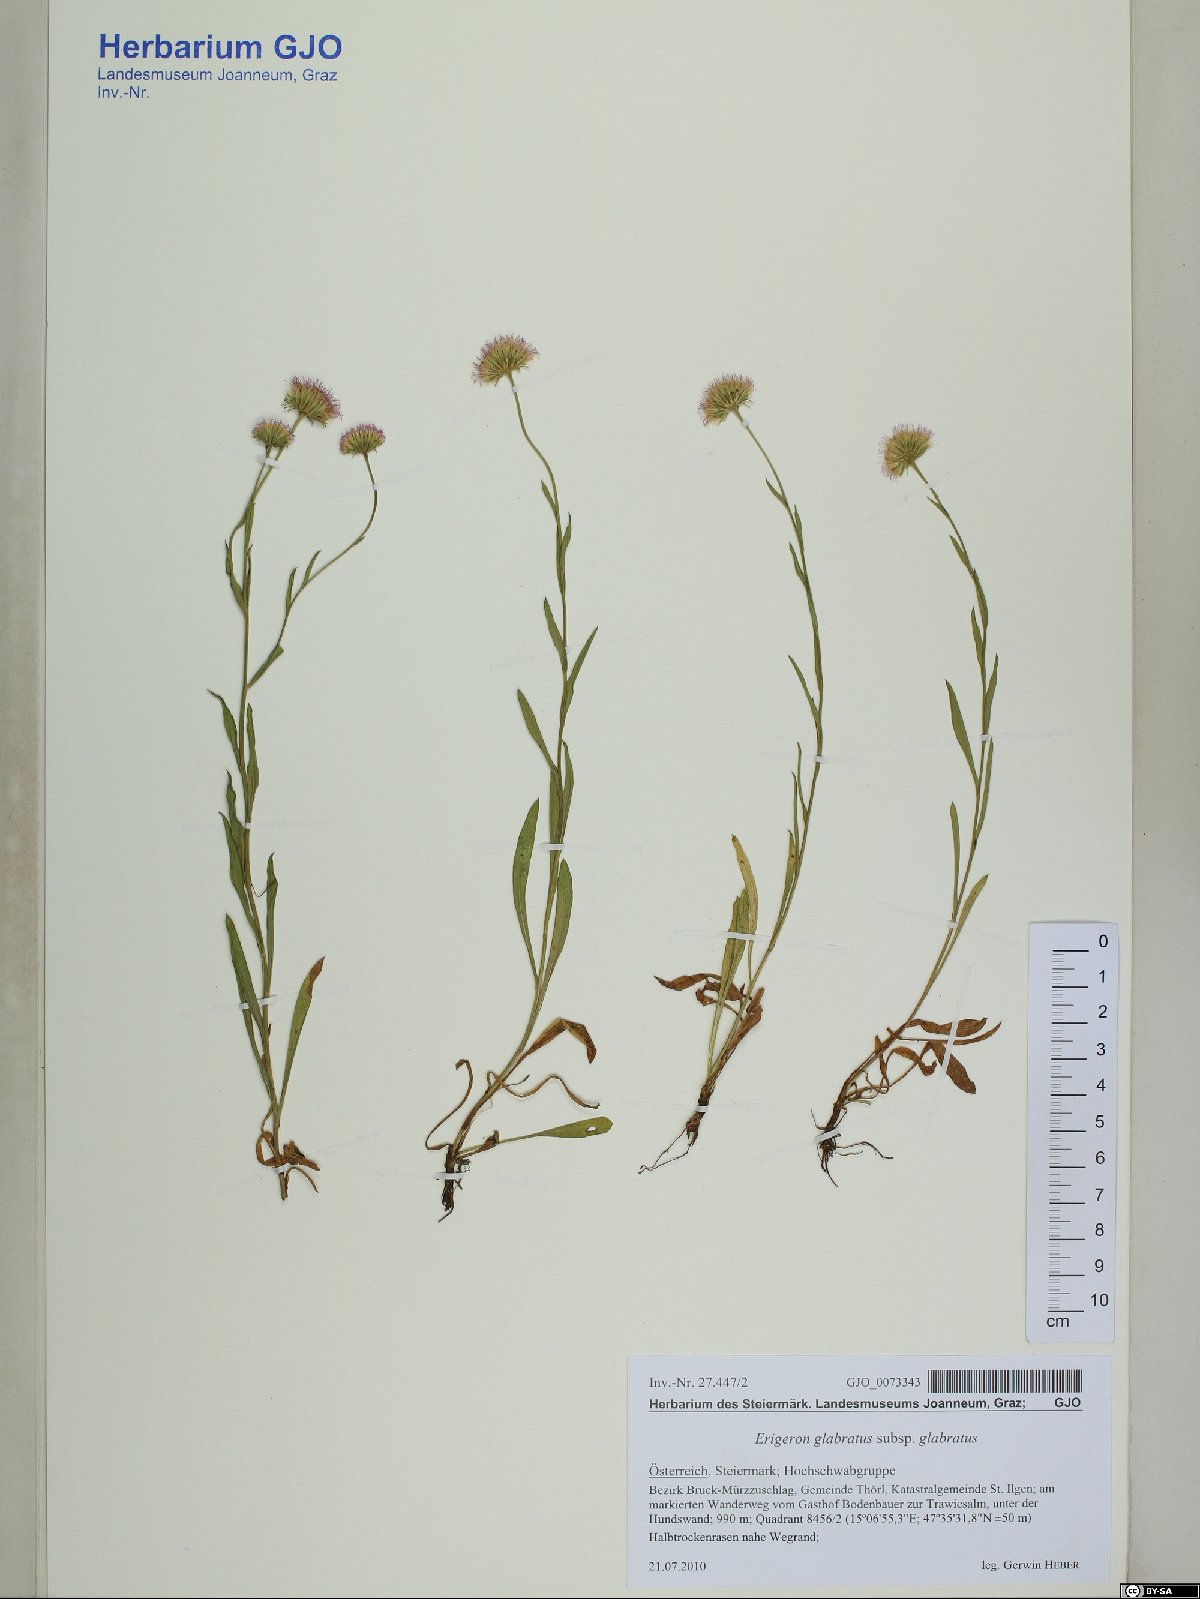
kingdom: Plantae
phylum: Tracheophyta
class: Magnoliopsida
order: Asterales
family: Asteraceae
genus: Erigeron
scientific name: Erigeron glabratus
